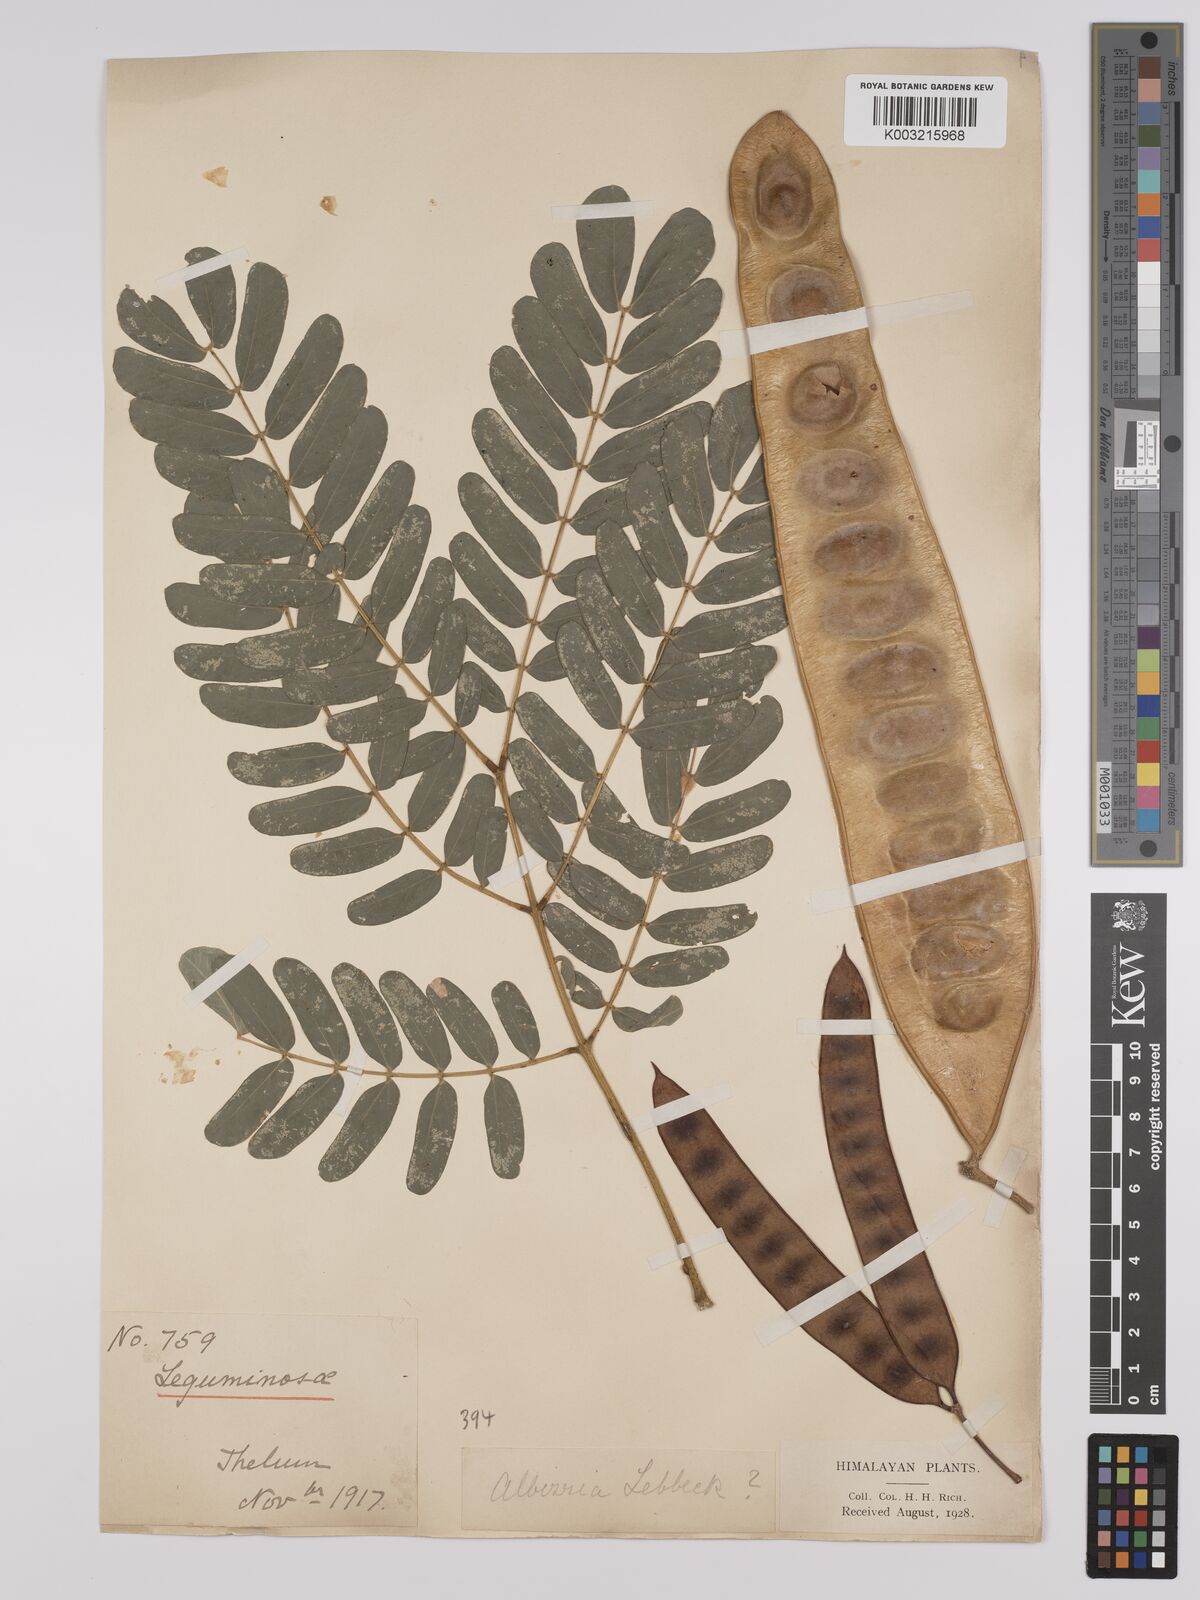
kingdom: Plantae
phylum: Tracheophyta
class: Magnoliopsida
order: Fabales
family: Fabaceae
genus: Albizia
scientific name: Albizia lebbeck
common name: Woman's tongue
